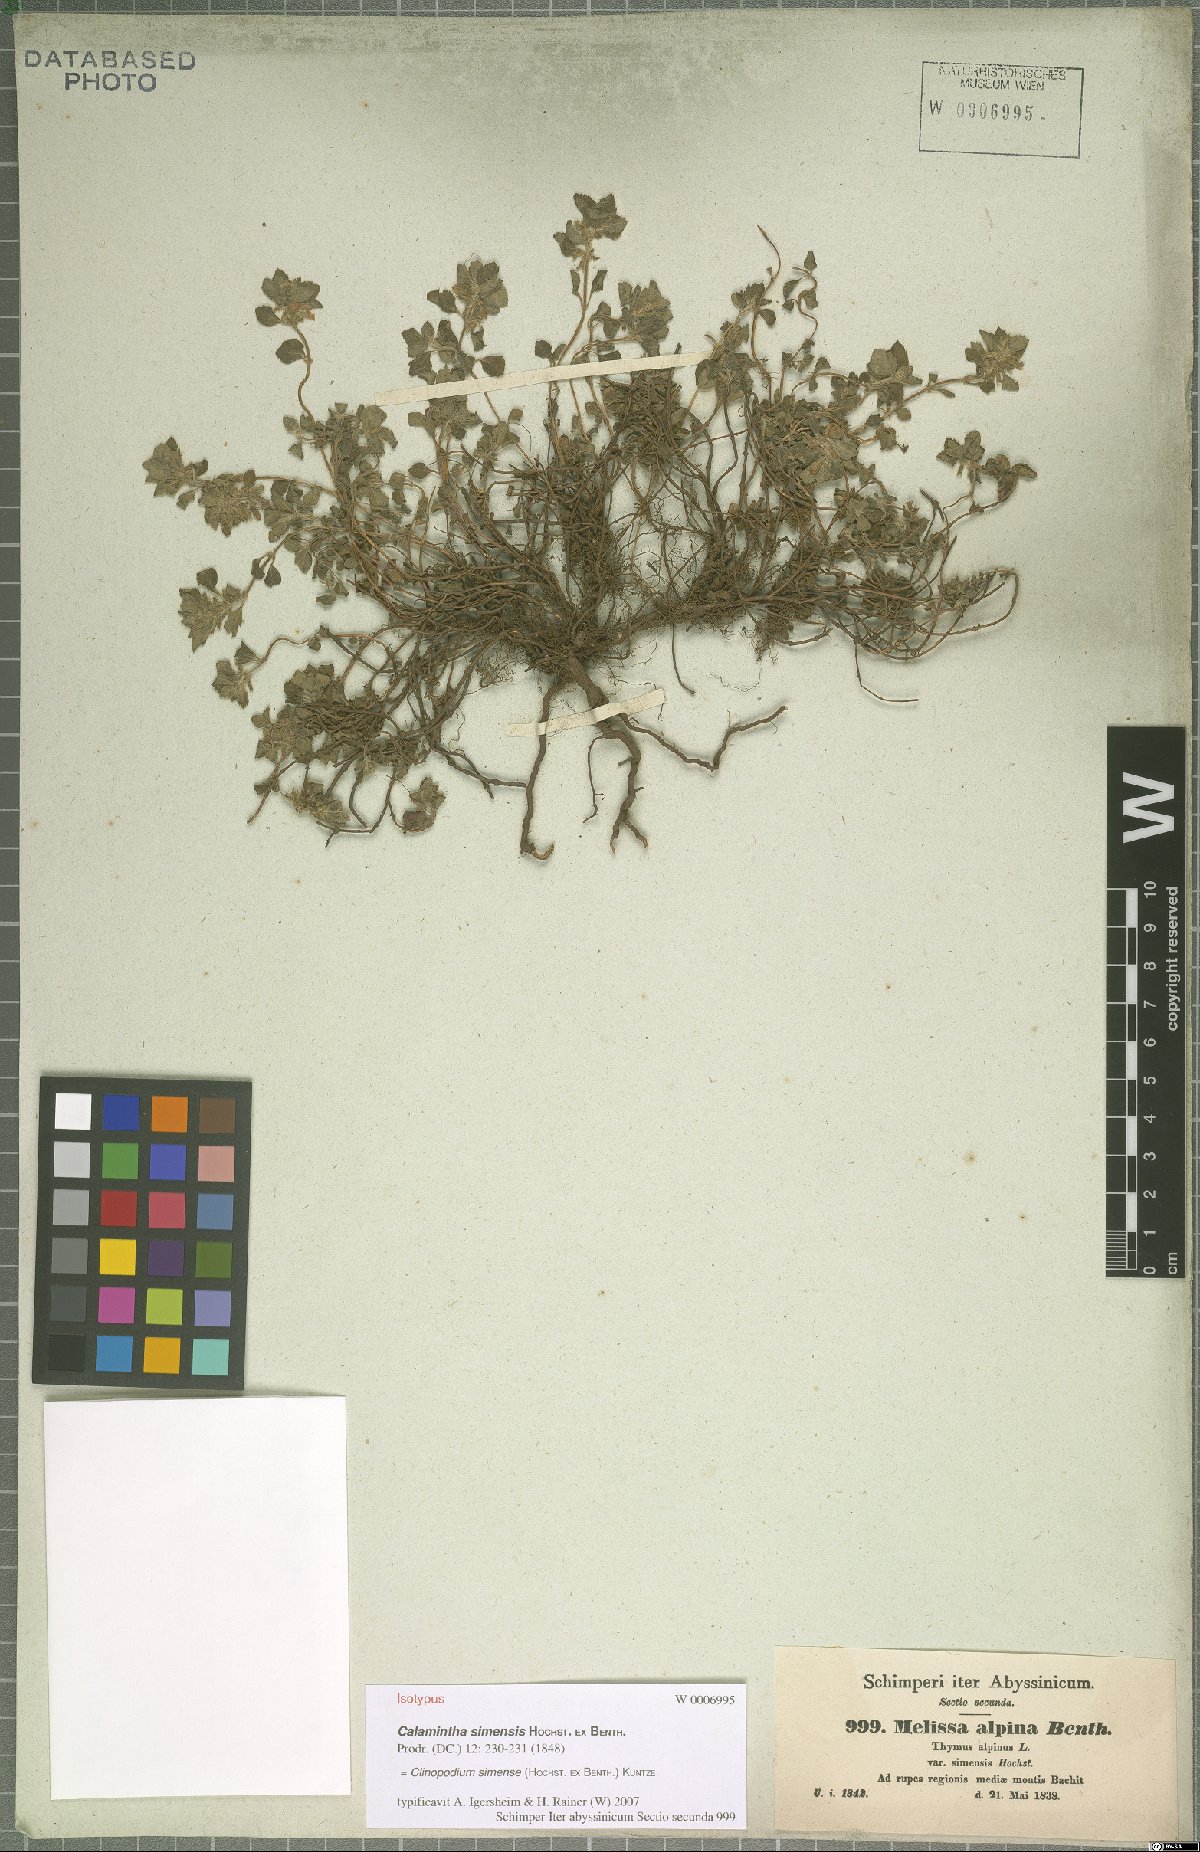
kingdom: Plantae
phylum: Tracheophyta
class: Magnoliopsida
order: Lamiales
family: Lamiaceae
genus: Clinopodium
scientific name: Clinopodium simense
